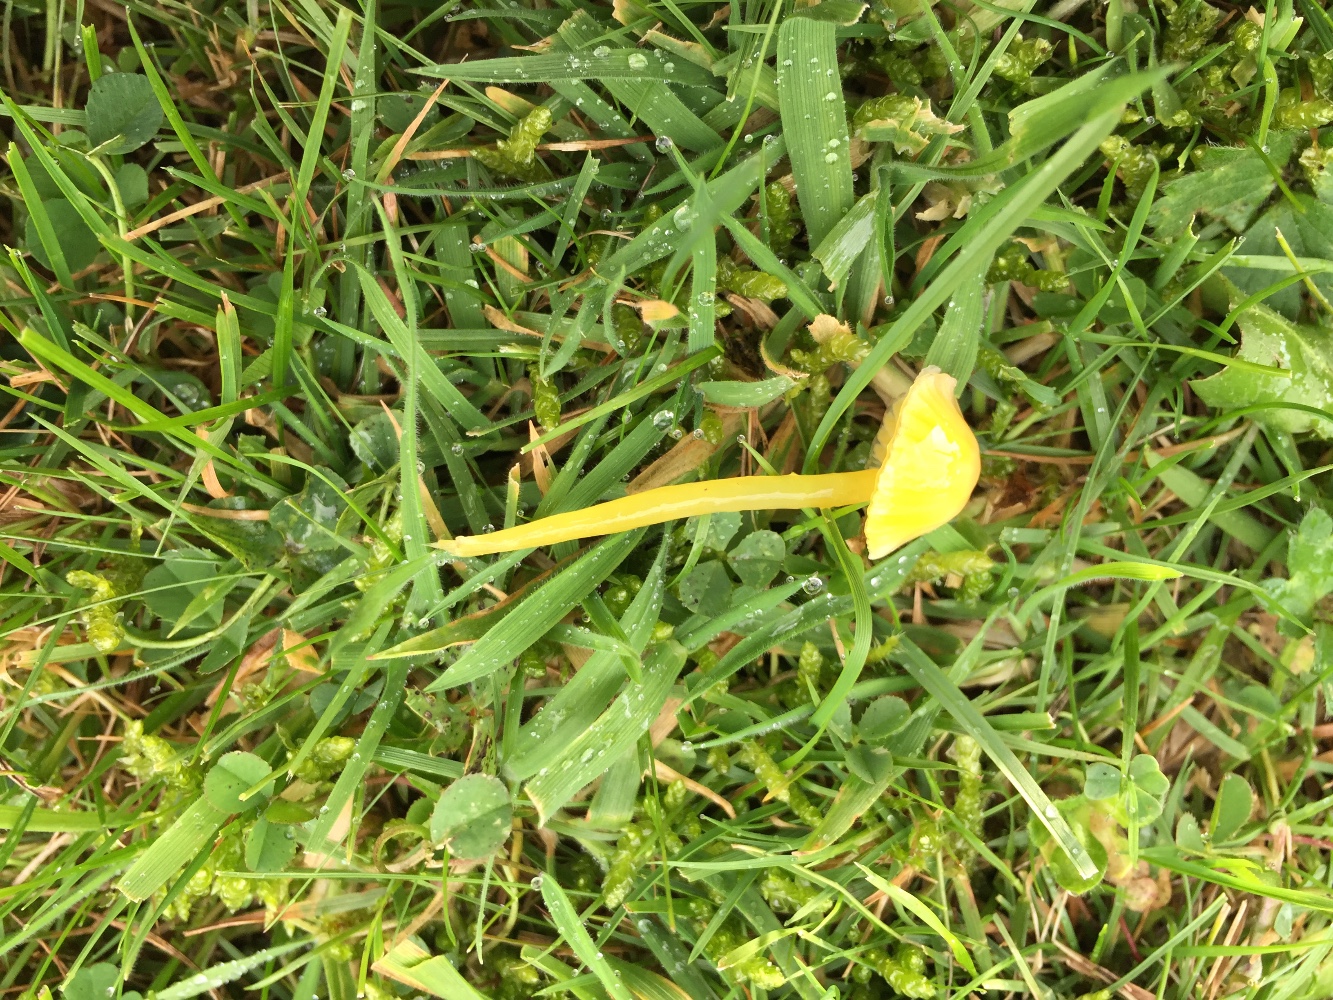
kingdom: Fungi
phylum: Basidiomycota
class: Agaricomycetes
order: Agaricales
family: Hygrophoraceae
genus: Hygrocybe
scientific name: Hygrocybe glutinipes
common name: slimstokket vokshat
